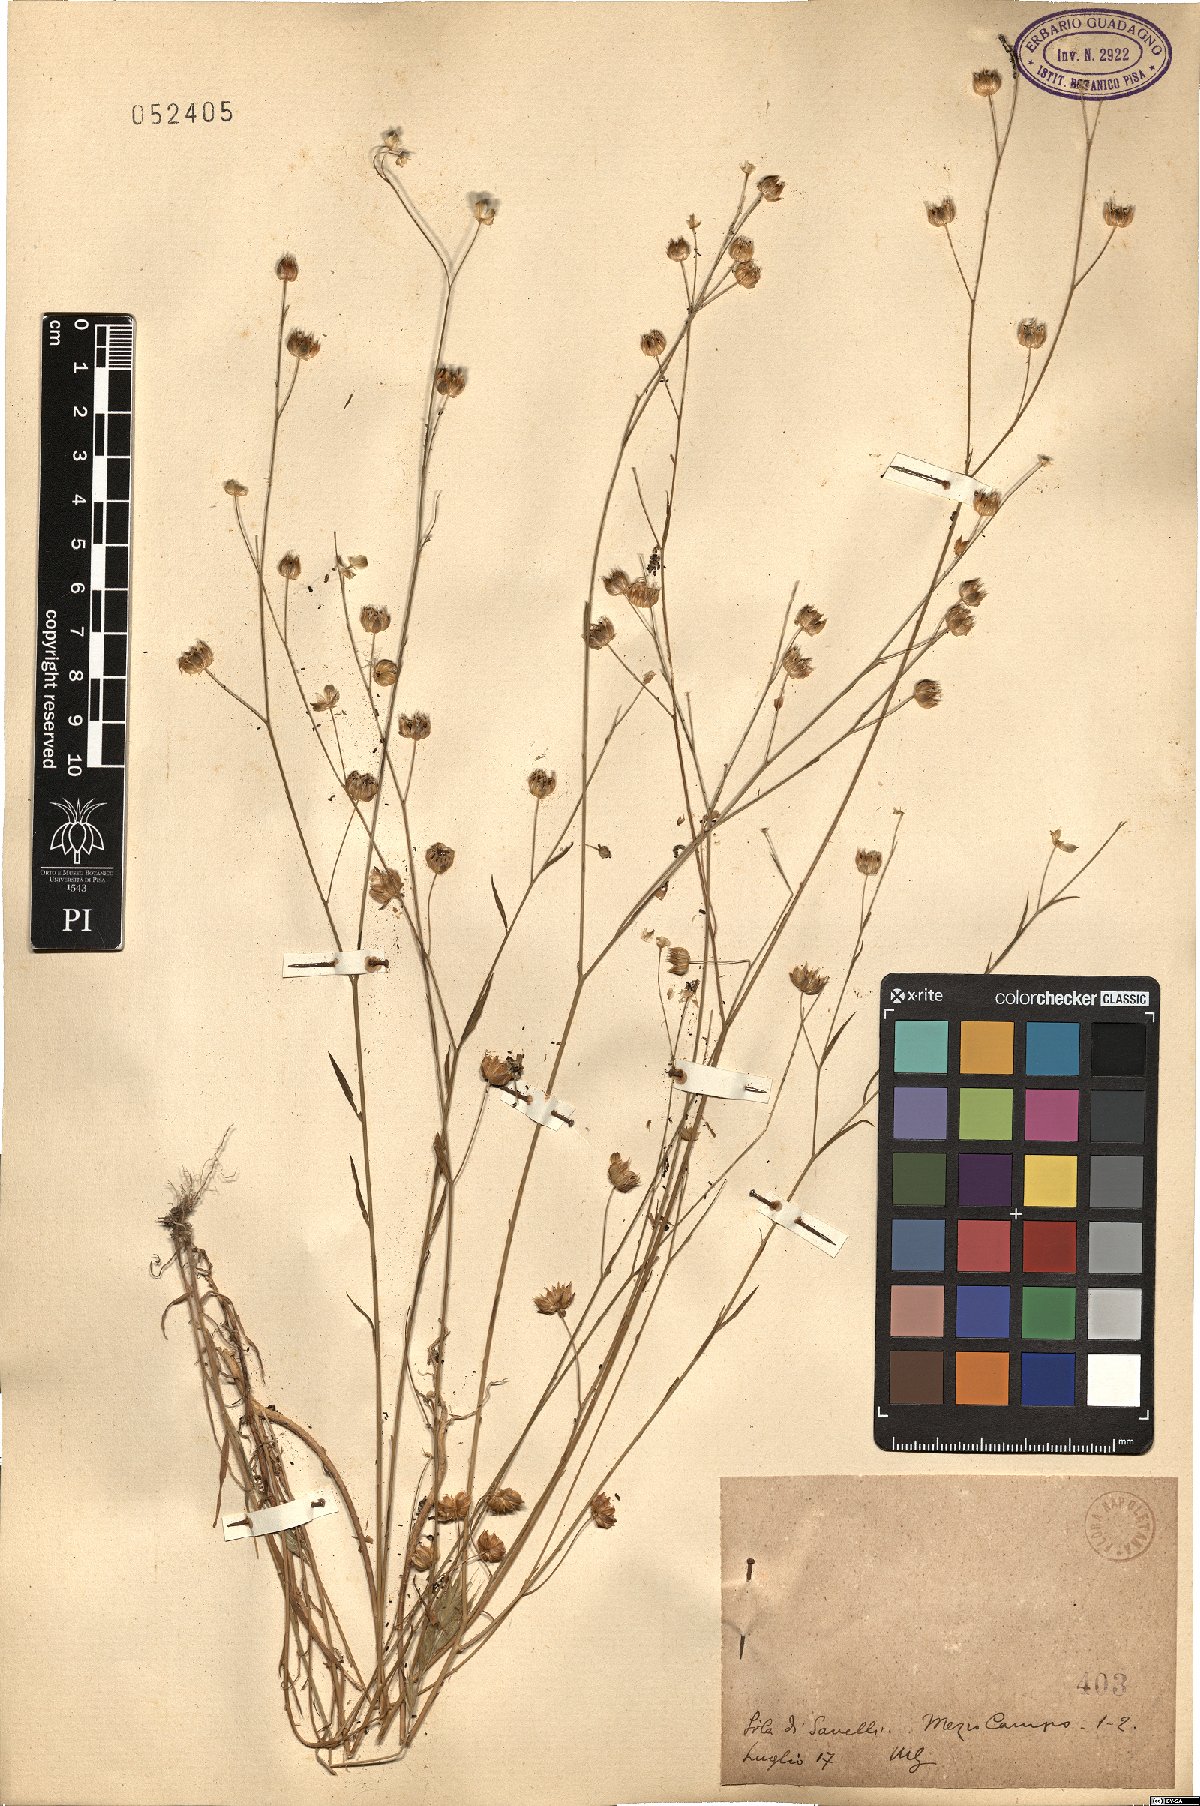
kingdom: Plantae
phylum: Tracheophyta
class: Magnoliopsida
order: Malpighiales
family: Linaceae
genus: Linum
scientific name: Linum
